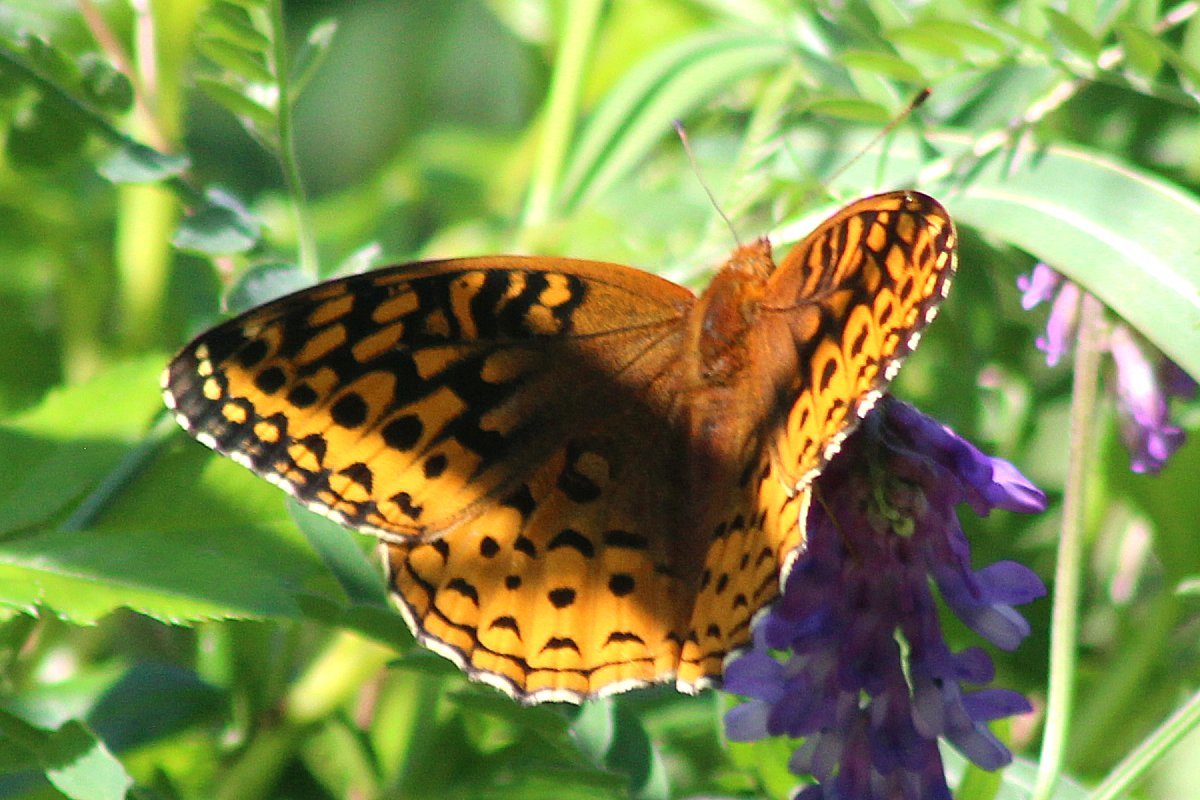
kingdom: Animalia
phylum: Arthropoda
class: Insecta
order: Lepidoptera
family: Nymphalidae
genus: Speyeria
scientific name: Speyeria cybele
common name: Great Spangled Fritillary
